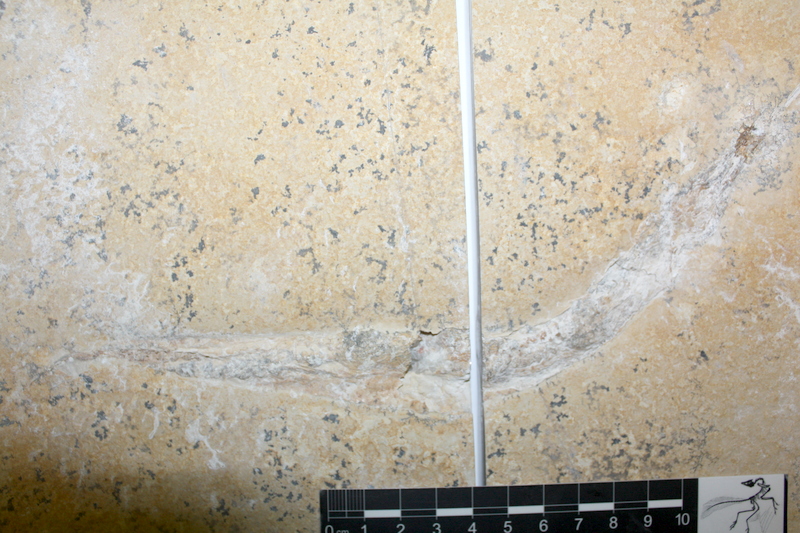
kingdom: Animalia
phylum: Chordata
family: Aspidorhynchidae
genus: Belonostomus
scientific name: Belonostomus
